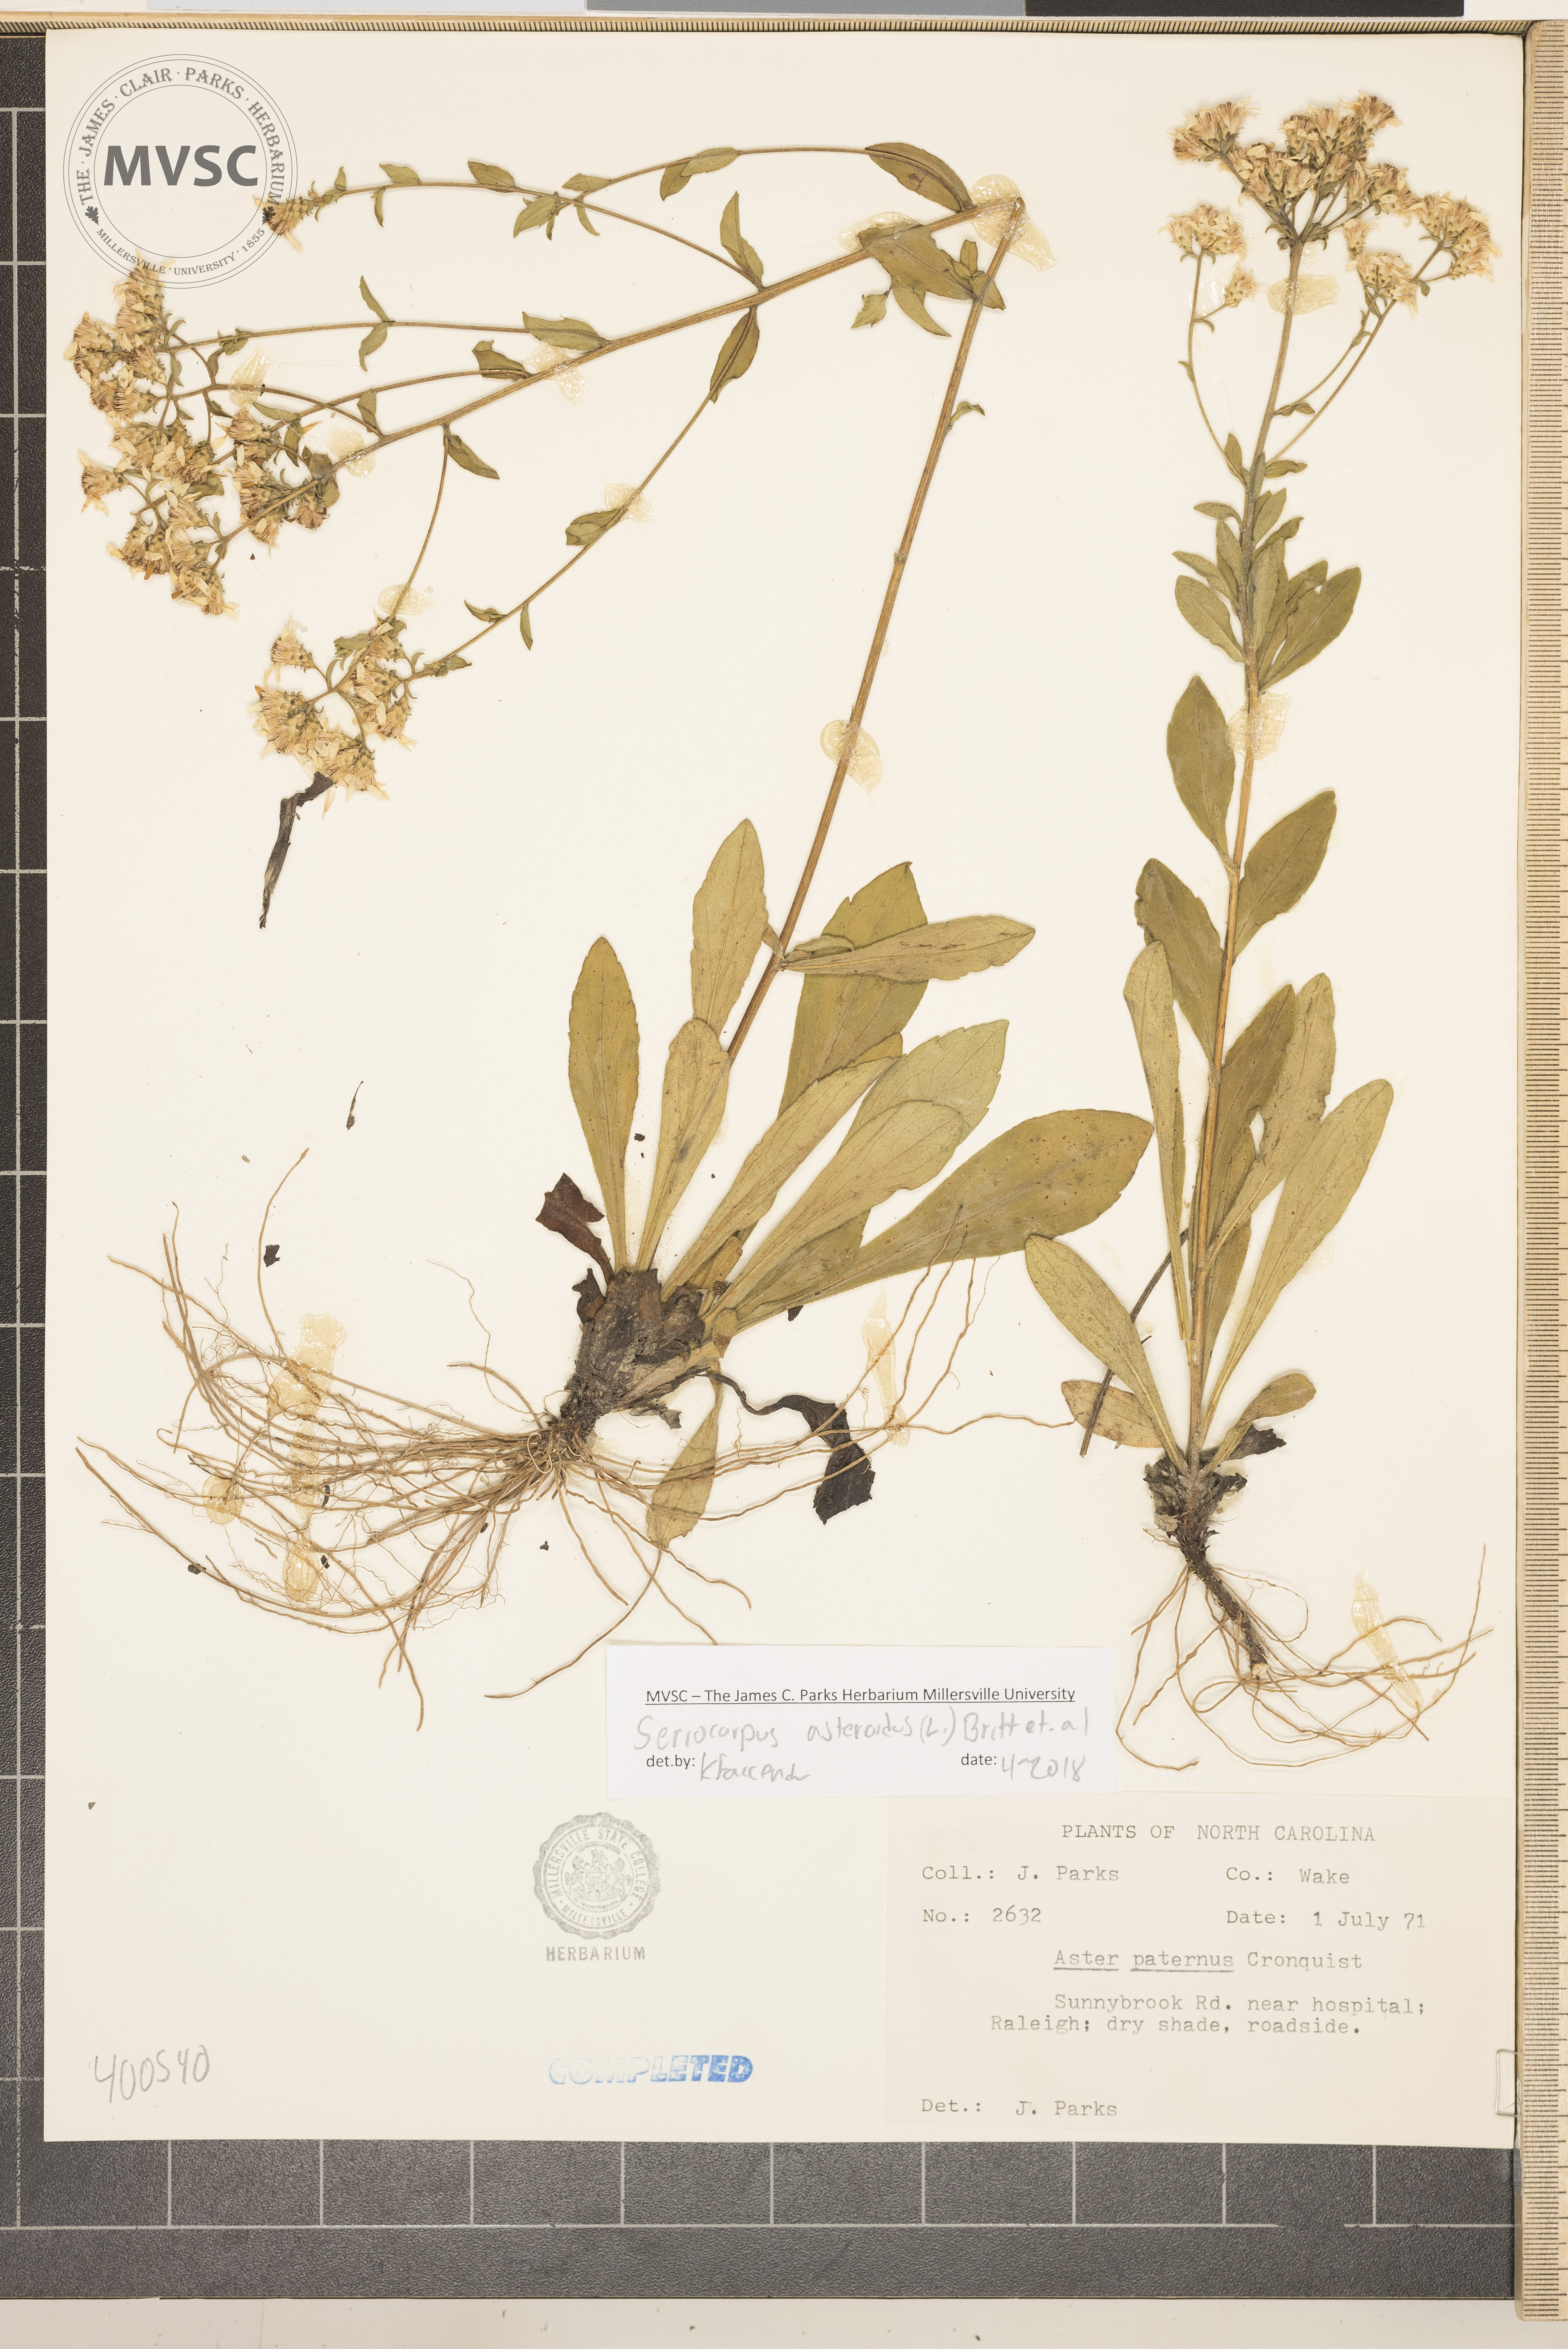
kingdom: Plantae
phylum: Tracheophyta
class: Magnoliopsida
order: Asterales
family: Asteraceae
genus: Sericocarpus
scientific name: Sericocarpus asteroides
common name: aster
